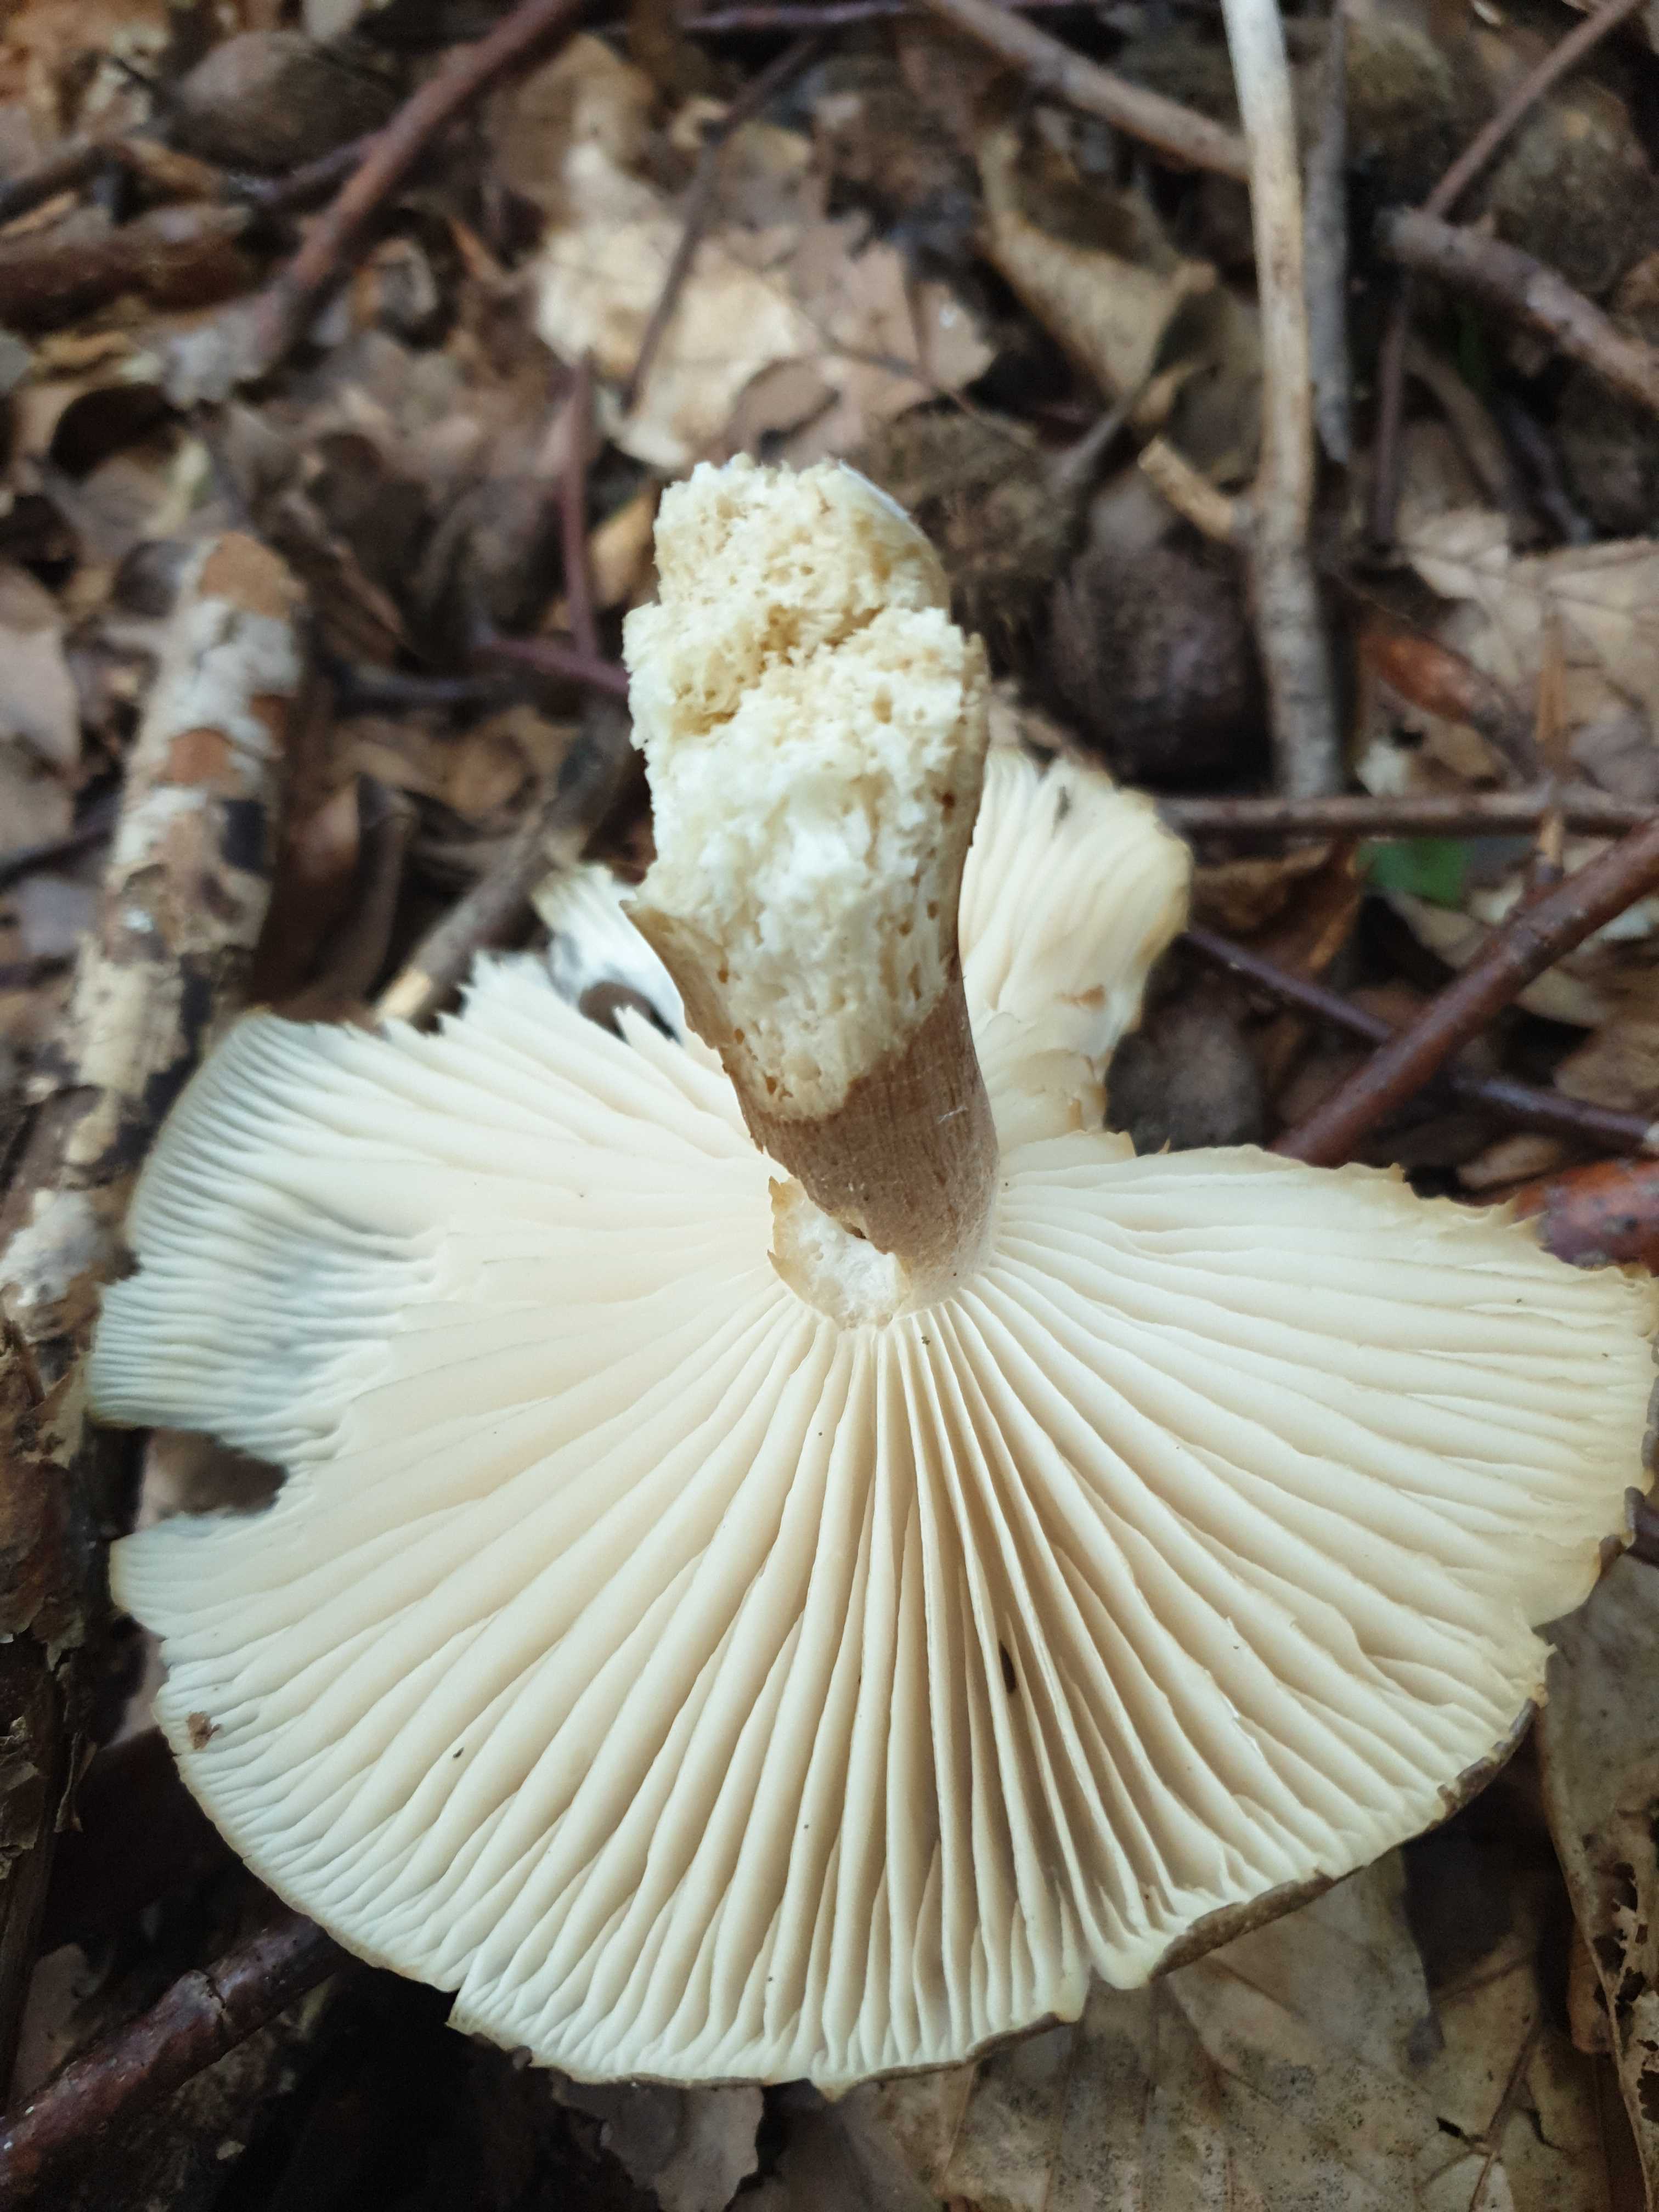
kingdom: Fungi
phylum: Basidiomycota
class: Agaricomycetes
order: Agaricales
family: Tricholomataceae
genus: Megacollybia
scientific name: Megacollybia platyphylla
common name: bredbladet væbnerhat
